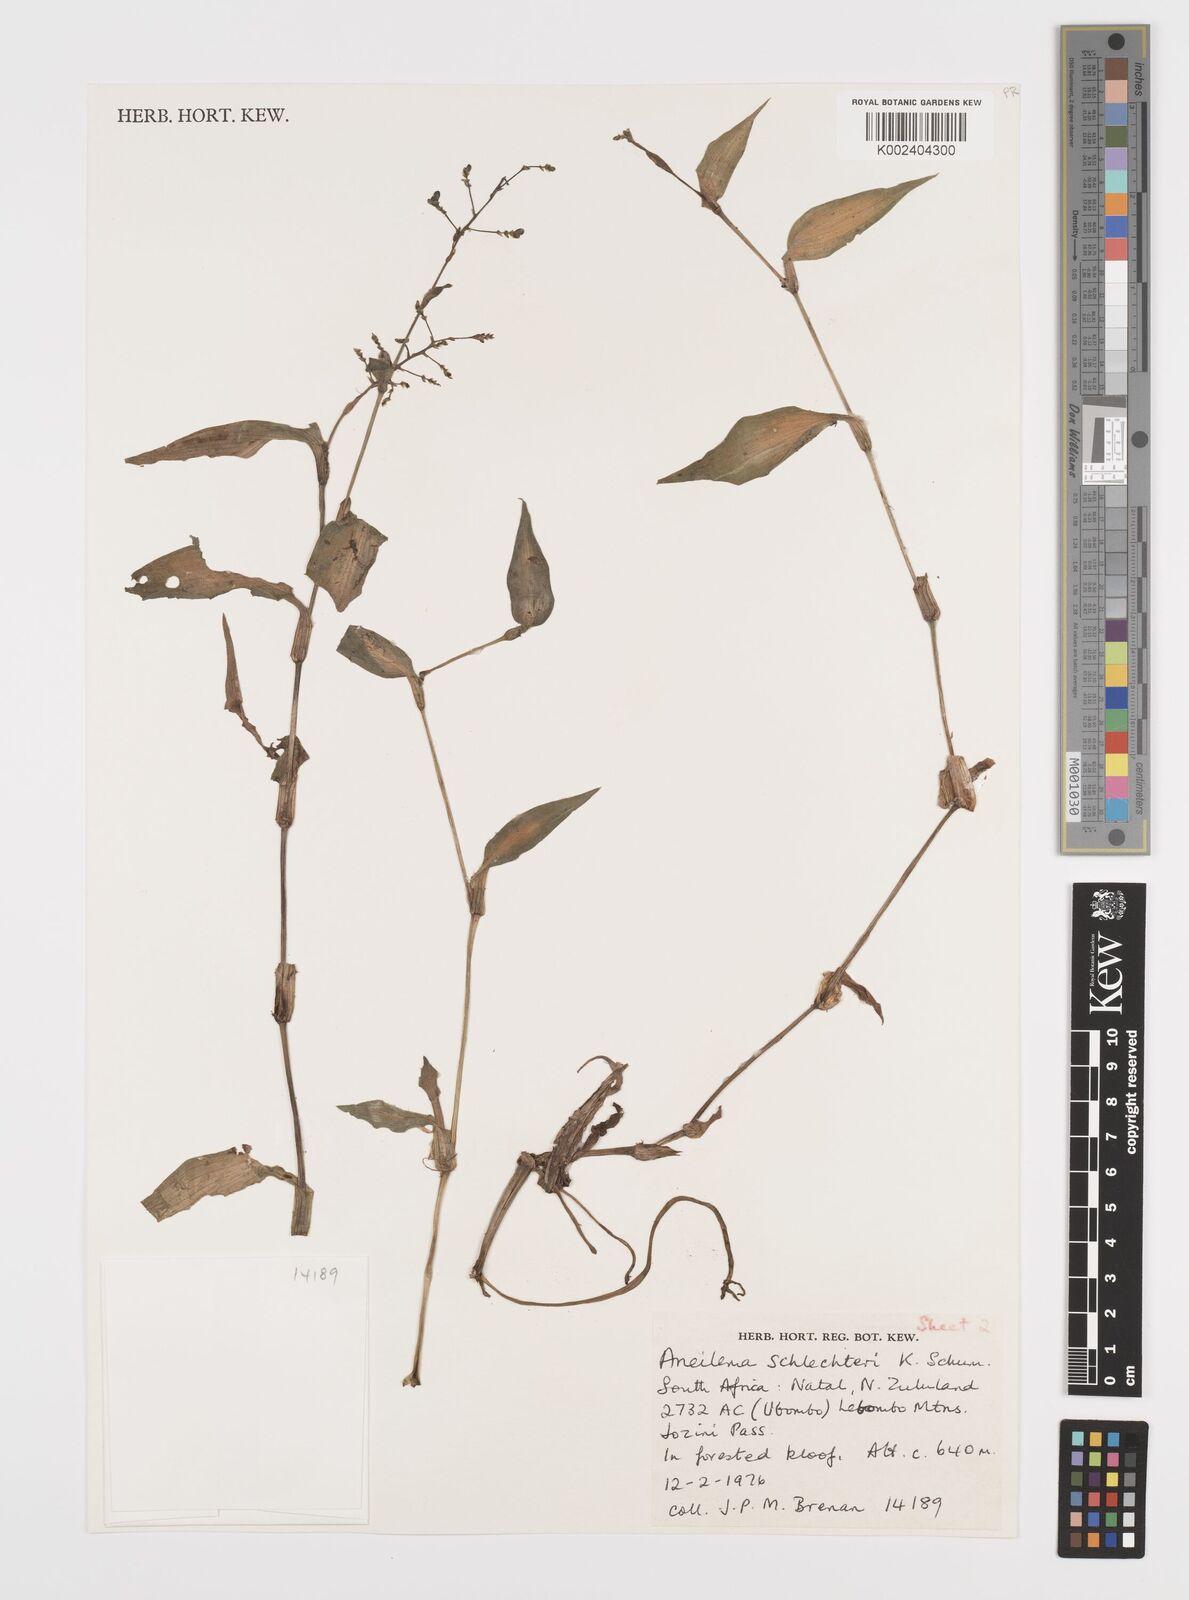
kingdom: Plantae
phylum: Tracheophyta
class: Liliopsida
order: Commelinales
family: Commelinaceae
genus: Aneilema
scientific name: Aneilema schlechteri
